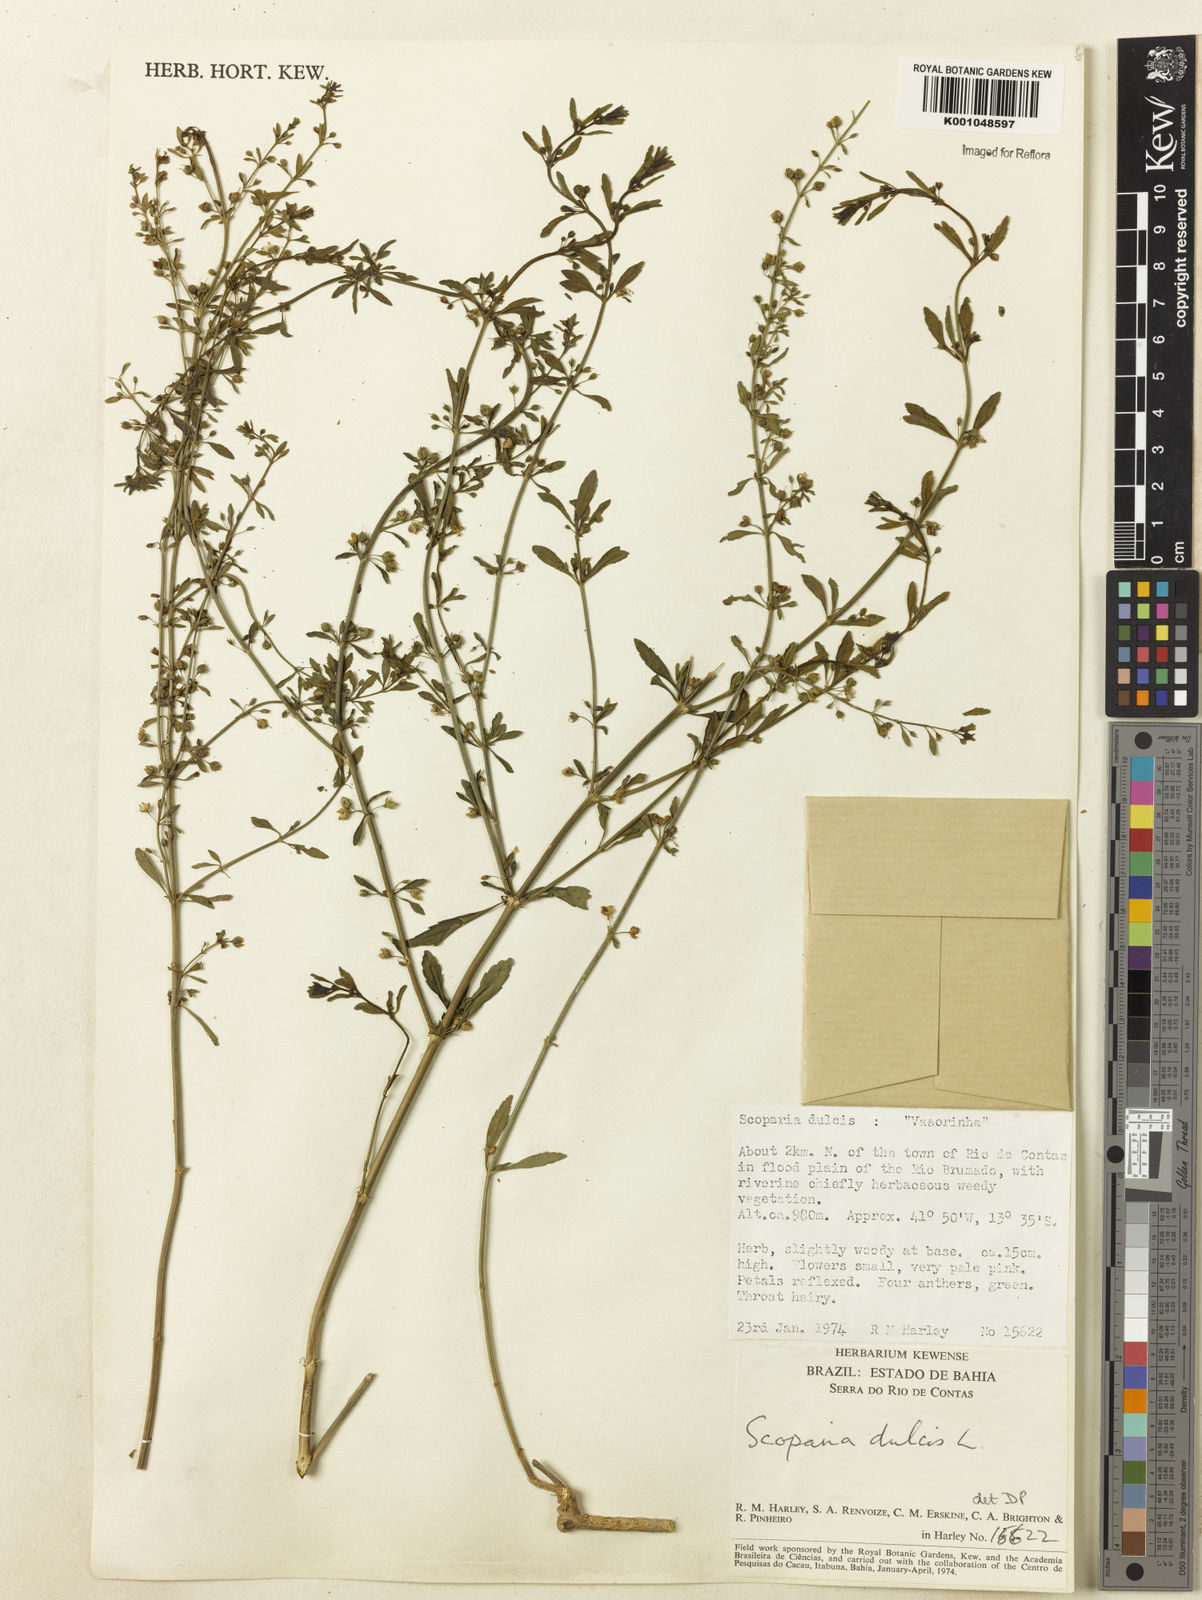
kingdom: Plantae
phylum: Tracheophyta
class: Magnoliopsida
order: Lamiales
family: Plantaginaceae
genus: Scoparia
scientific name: Scoparia dulcis
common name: Scoparia-weed
